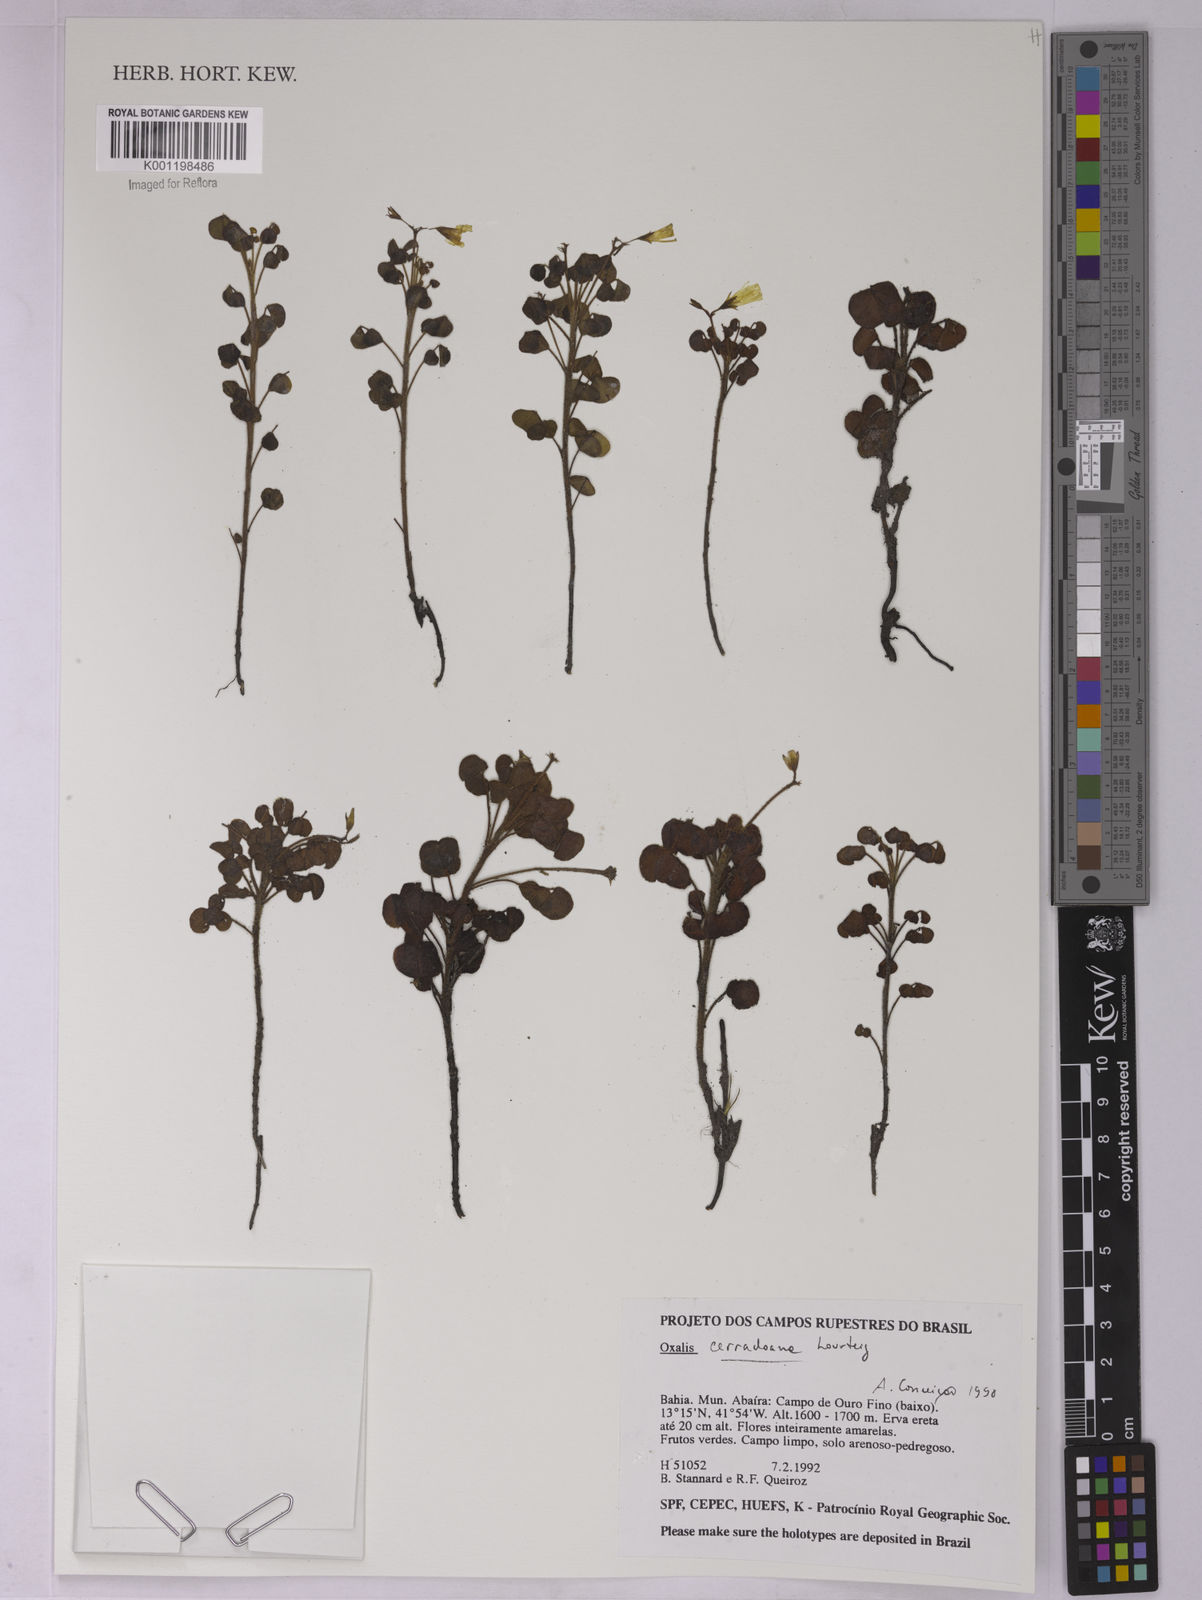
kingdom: Plantae
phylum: Tracheophyta
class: Magnoliopsida
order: Oxalidales
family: Oxalidaceae
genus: Oxalis
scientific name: Oxalis cerradoana
